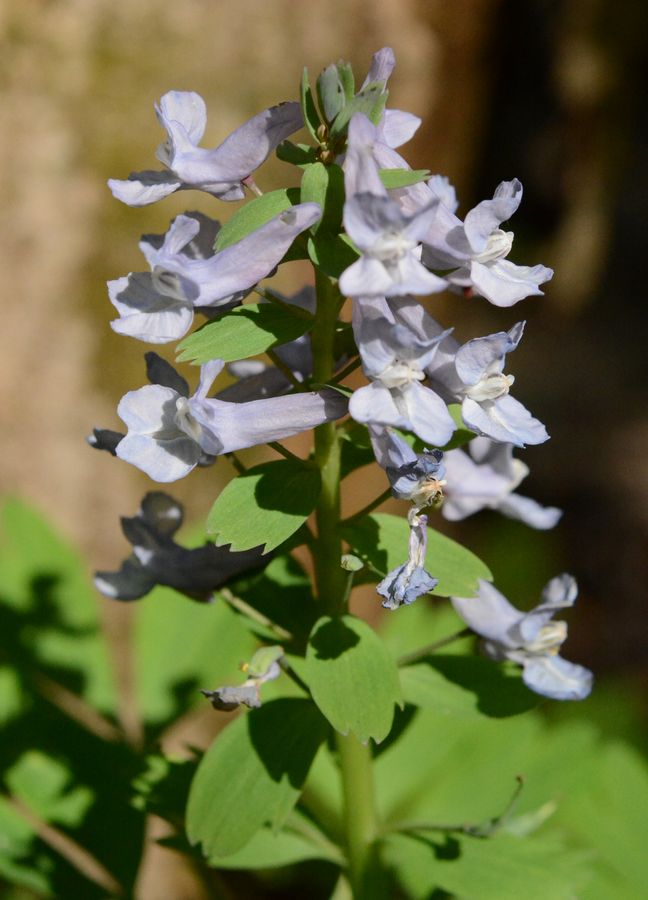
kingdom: Plantae
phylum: Tracheophyta
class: Magnoliopsida
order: Ranunculales
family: Papaveraceae
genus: Corydalis
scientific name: Corydalis solida
